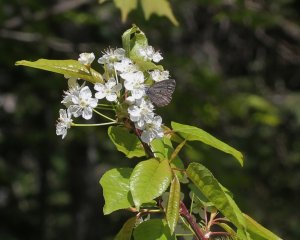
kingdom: Animalia
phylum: Arthropoda
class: Insecta
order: Lepidoptera
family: Lycaenidae
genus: Celastrina
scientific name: Celastrina lucia
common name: Northern Spring Azure
